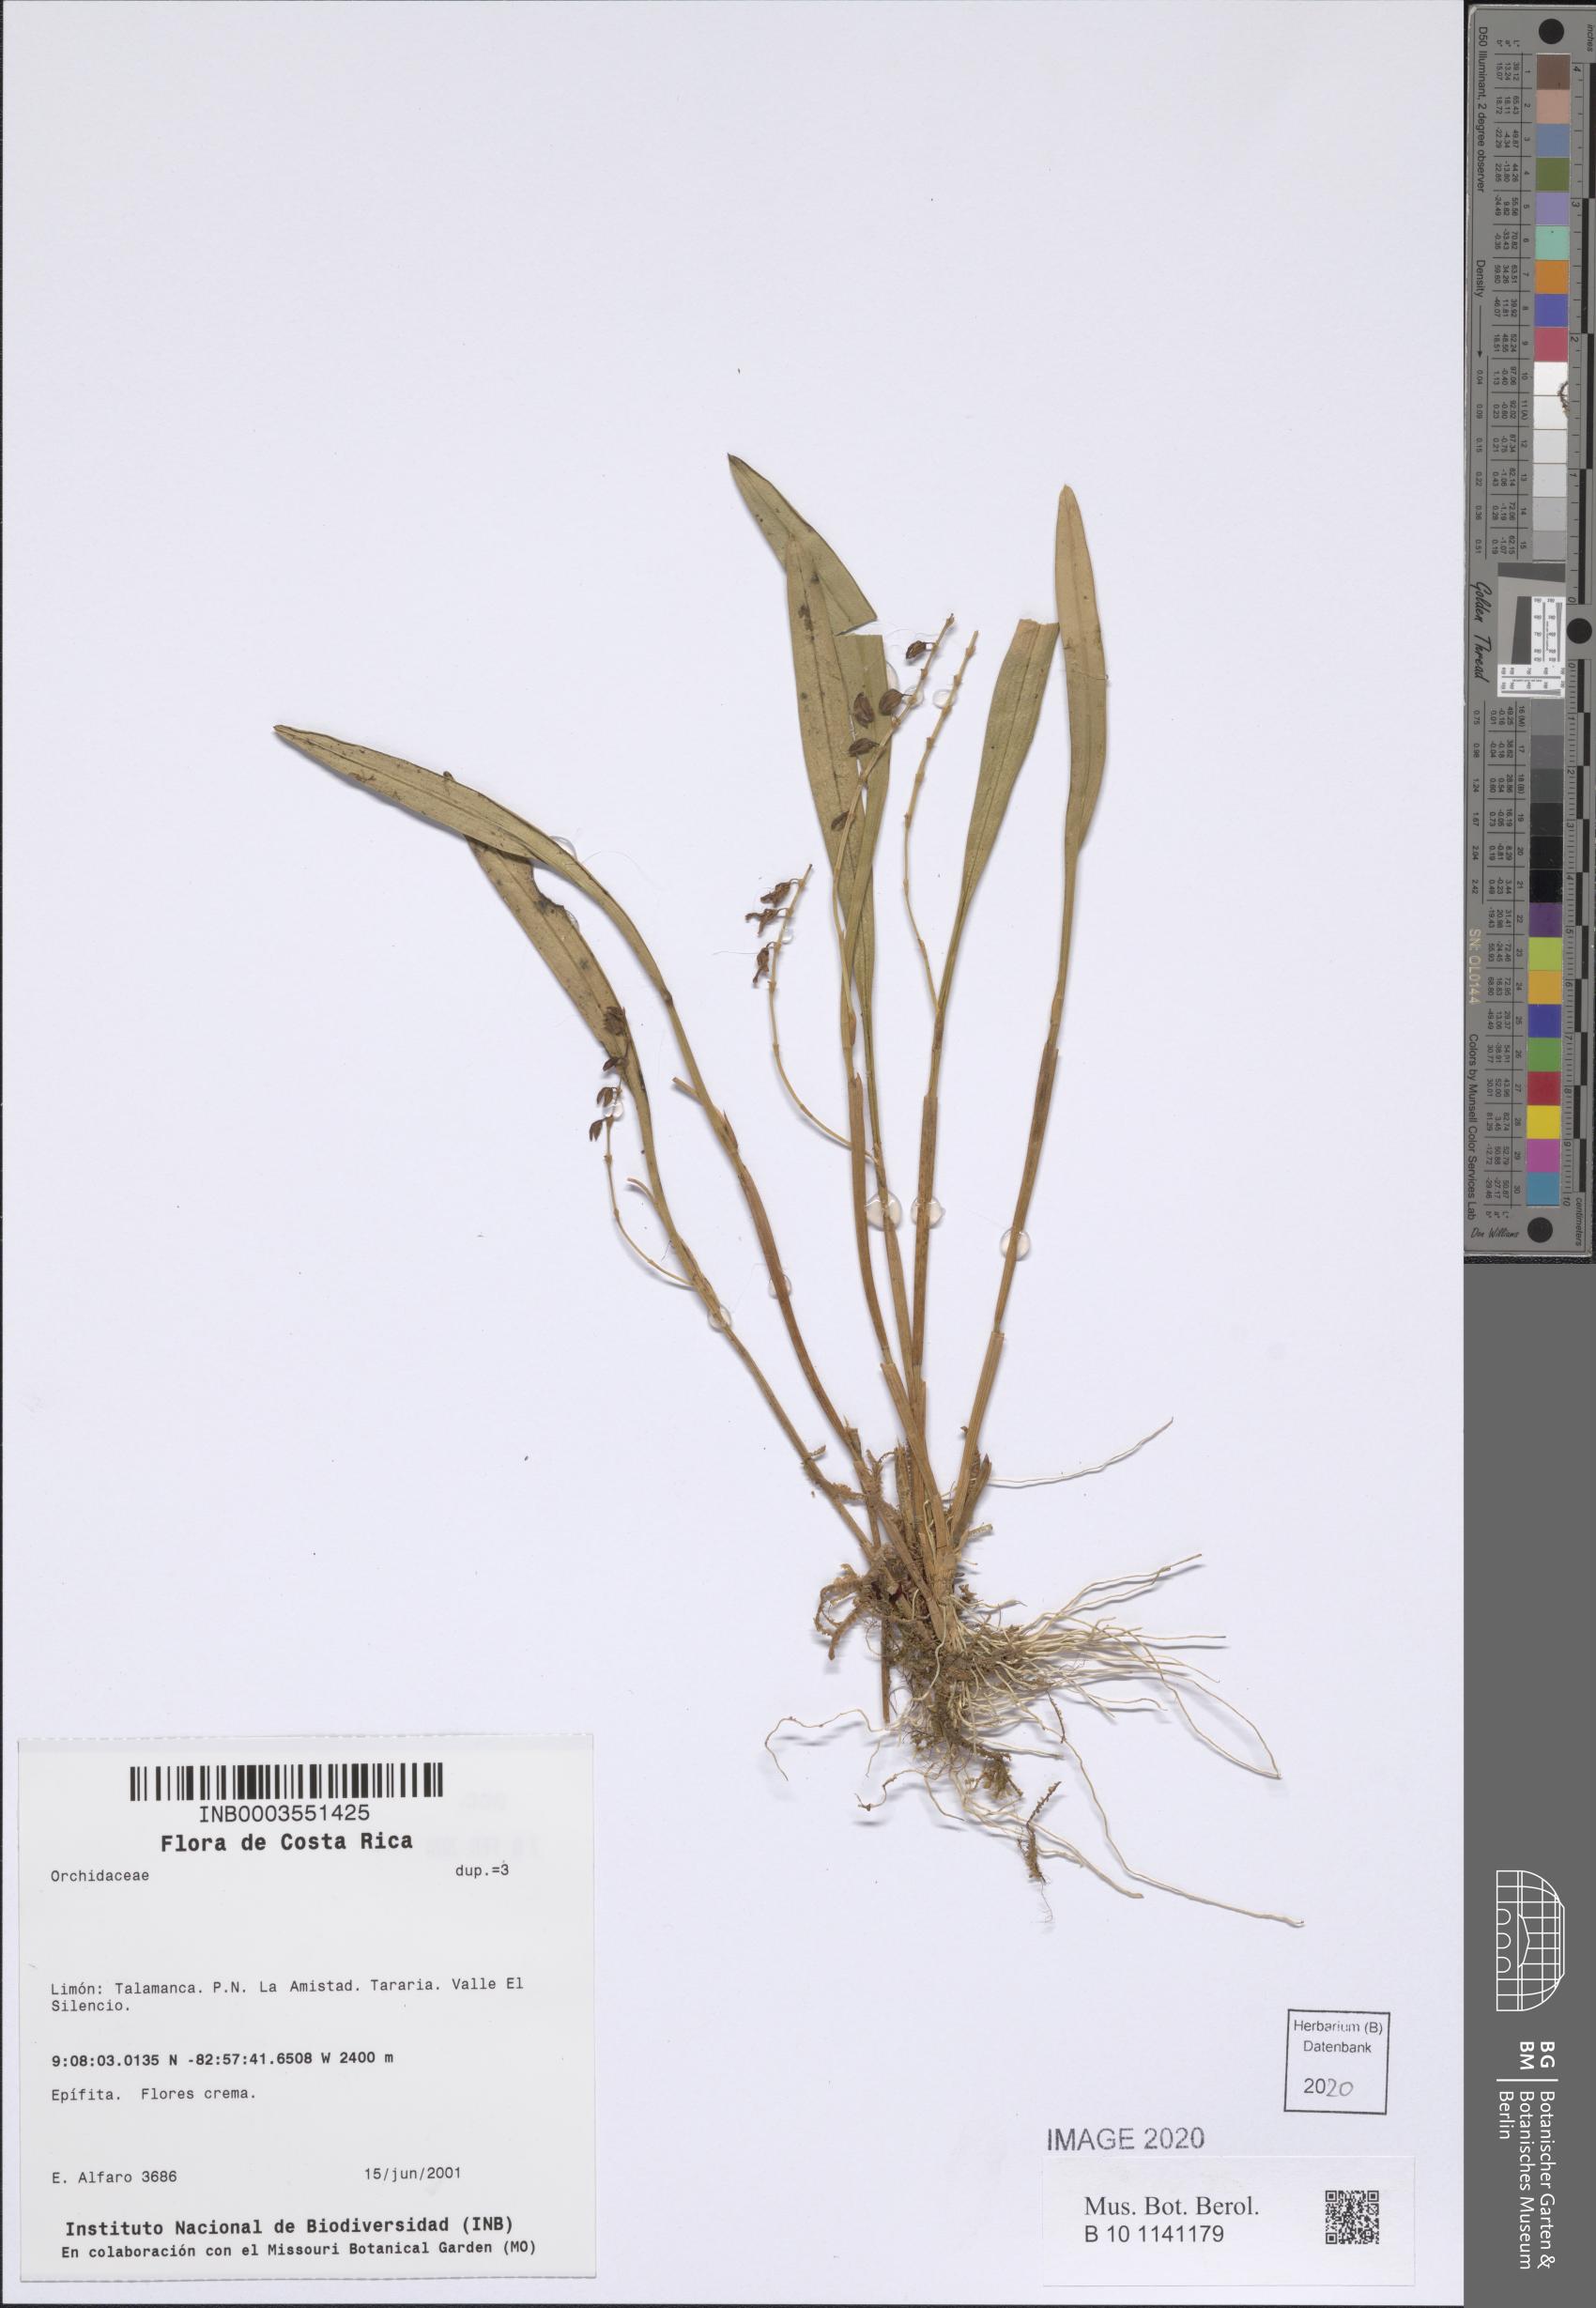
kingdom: Plantae
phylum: Tracheophyta
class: Liliopsida
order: Asparagales
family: Orchidaceae
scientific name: Orchidaceae
